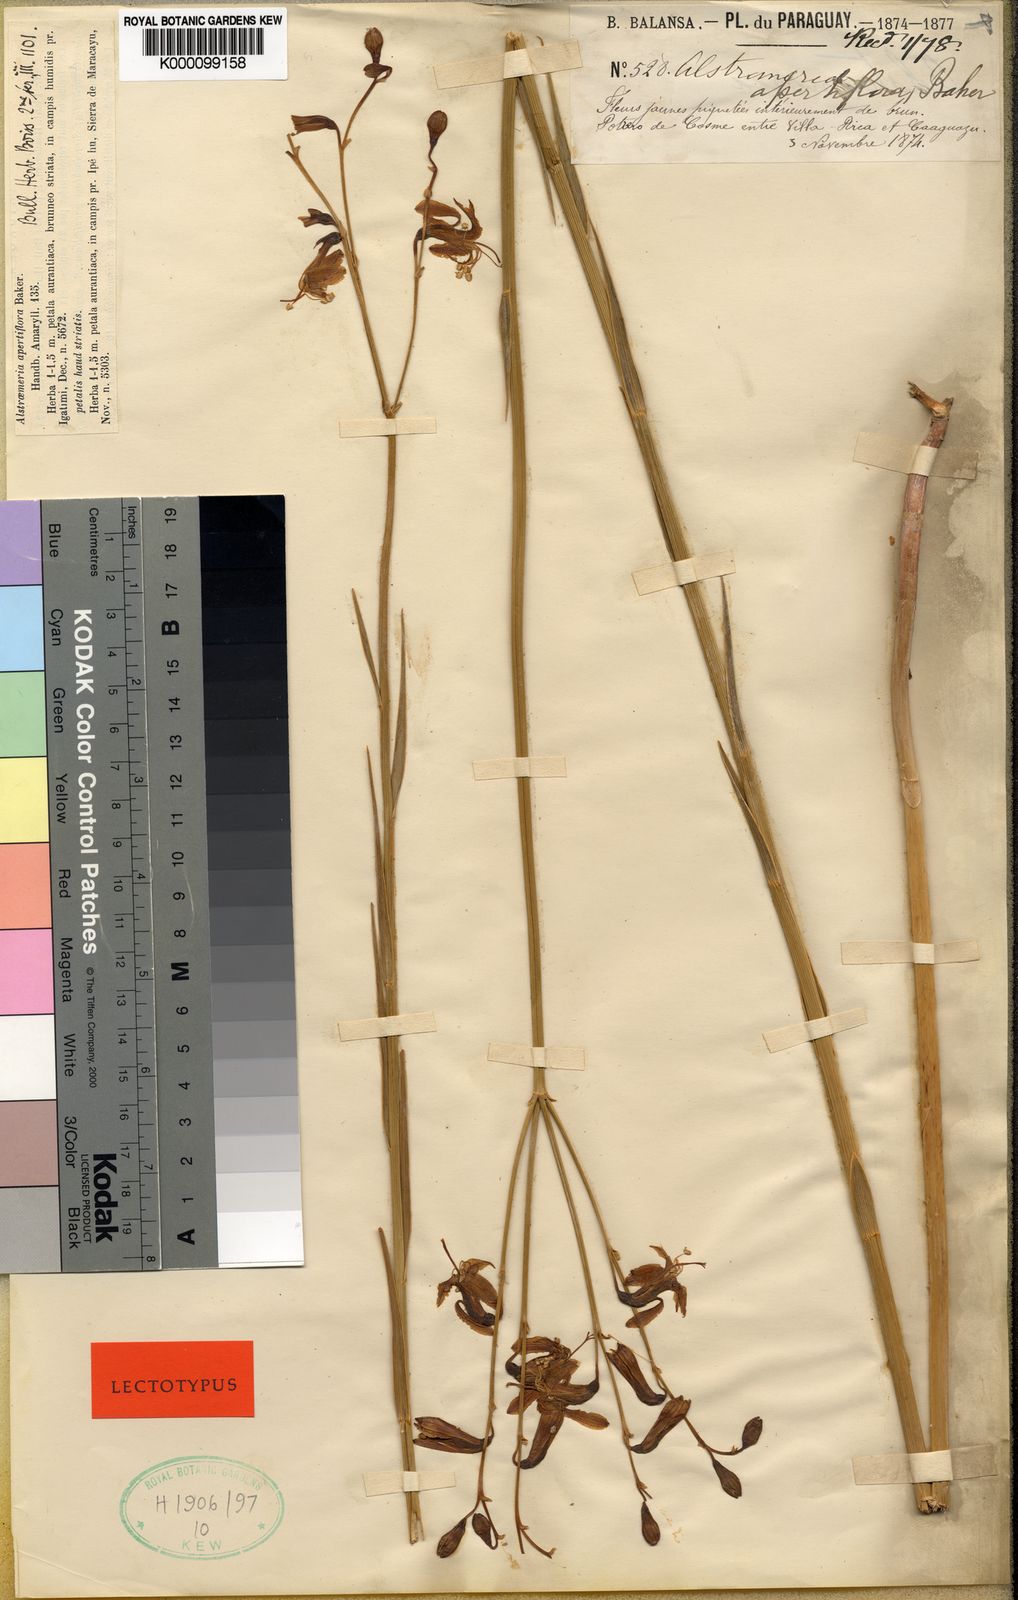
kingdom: Plantae
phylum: Tracheophyta
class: Liliopsida
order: Liliales
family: Alstroemeriaceae
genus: Alstroemeria
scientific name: Alstroemeria apertiflora
